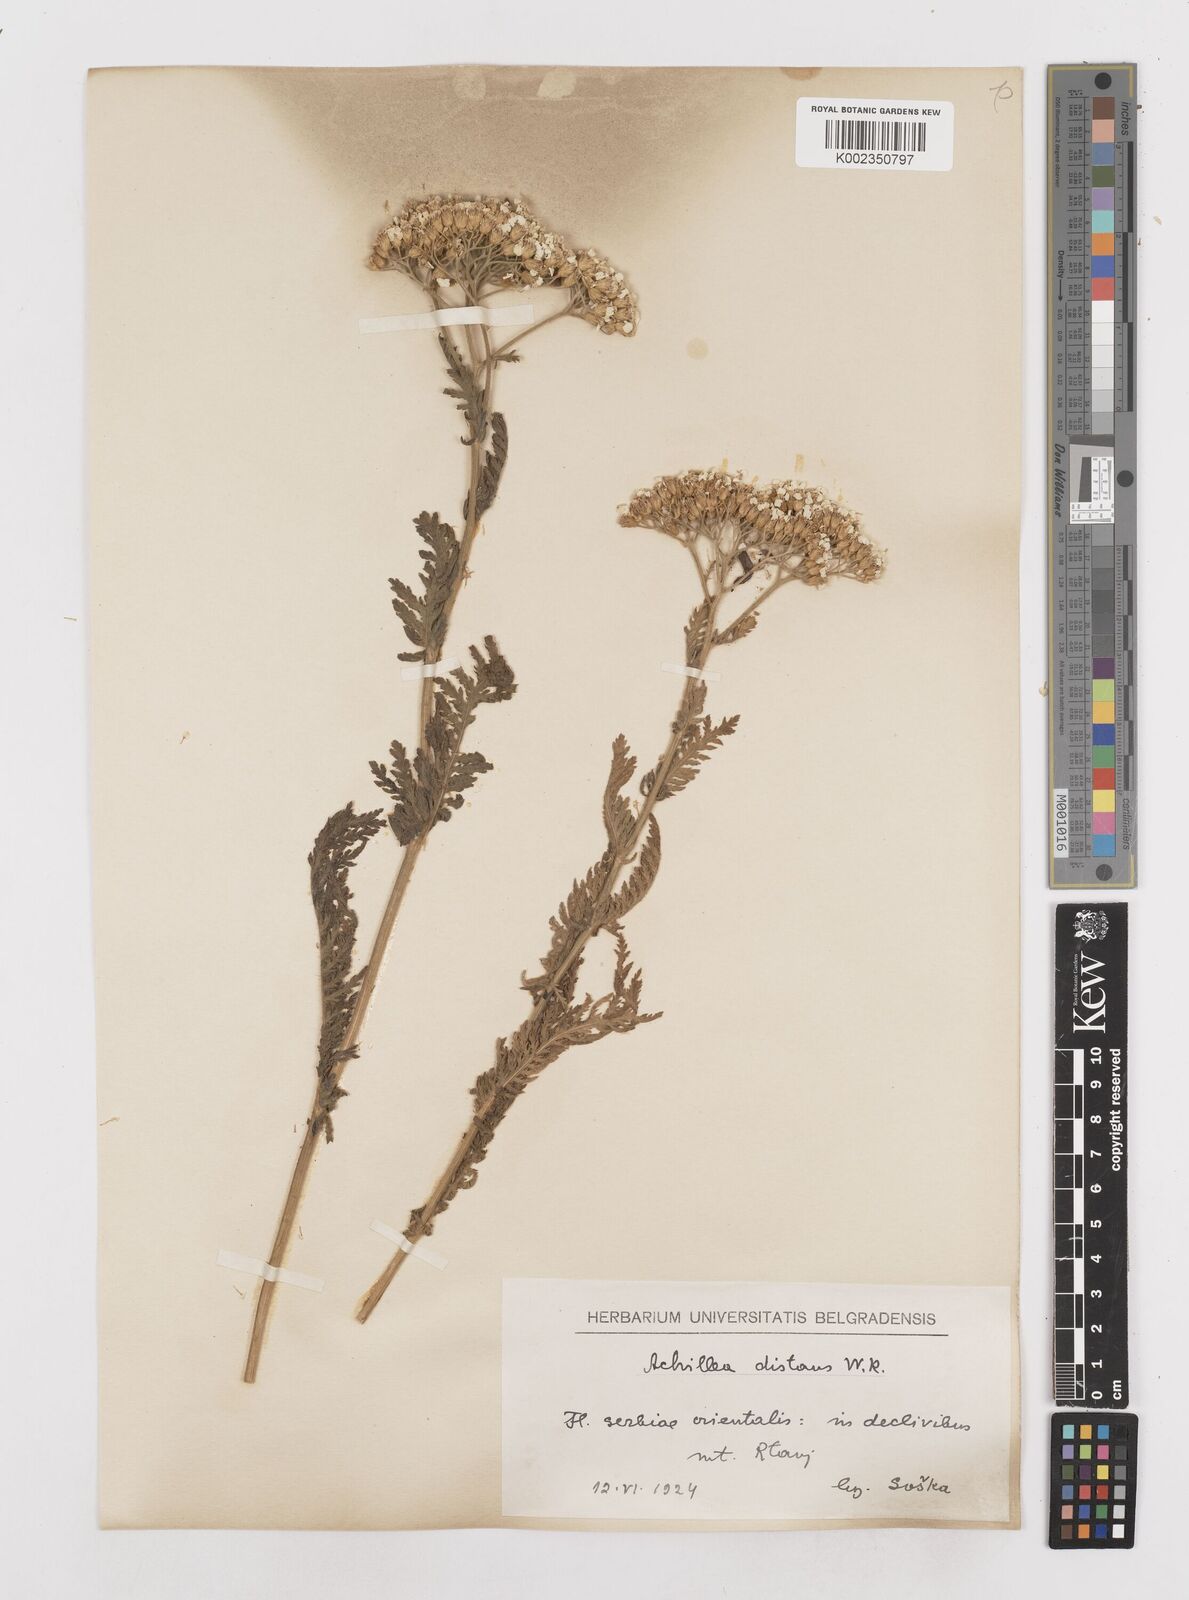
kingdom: Plantae
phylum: Tracheophyta
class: Magnoliopsida
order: Asterales
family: Asteraceae
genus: Achillea
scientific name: Achillea distans
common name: Tall yarrow
